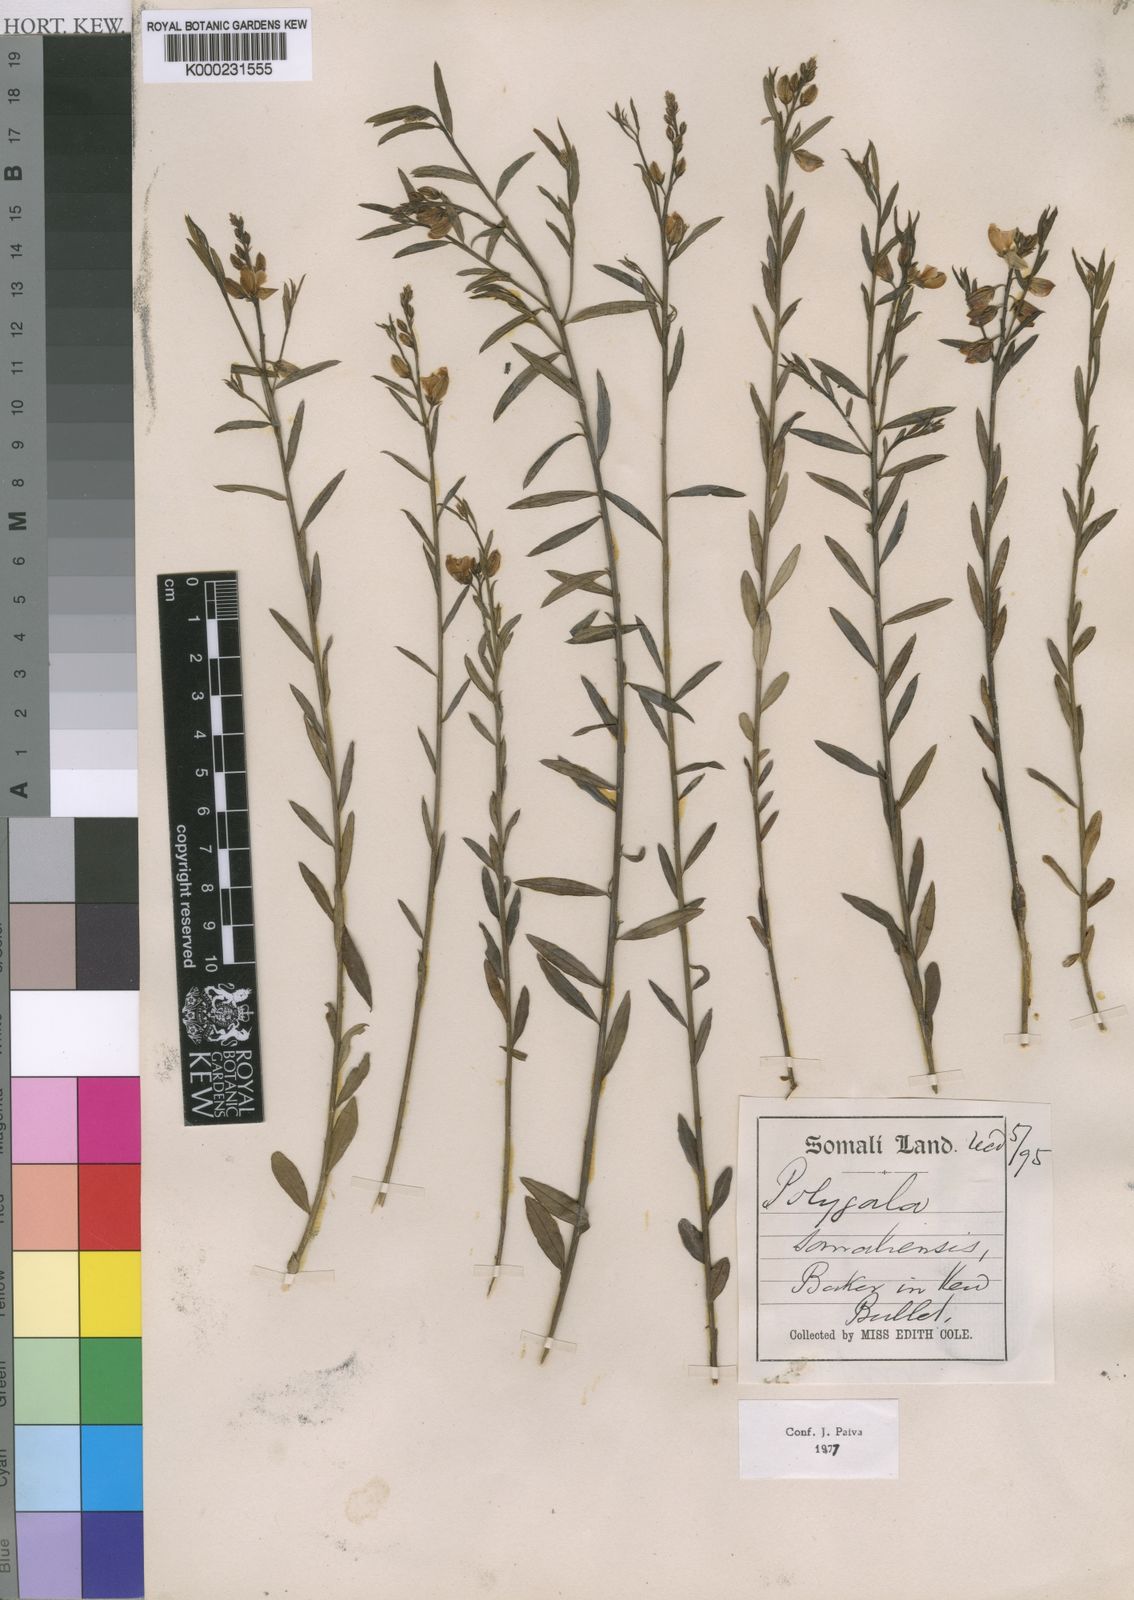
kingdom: Plantae
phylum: Tracheophyta
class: Magnoliopsida
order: Fabales
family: Polygalaceae
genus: Polygala
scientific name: Polygala somaliensis
